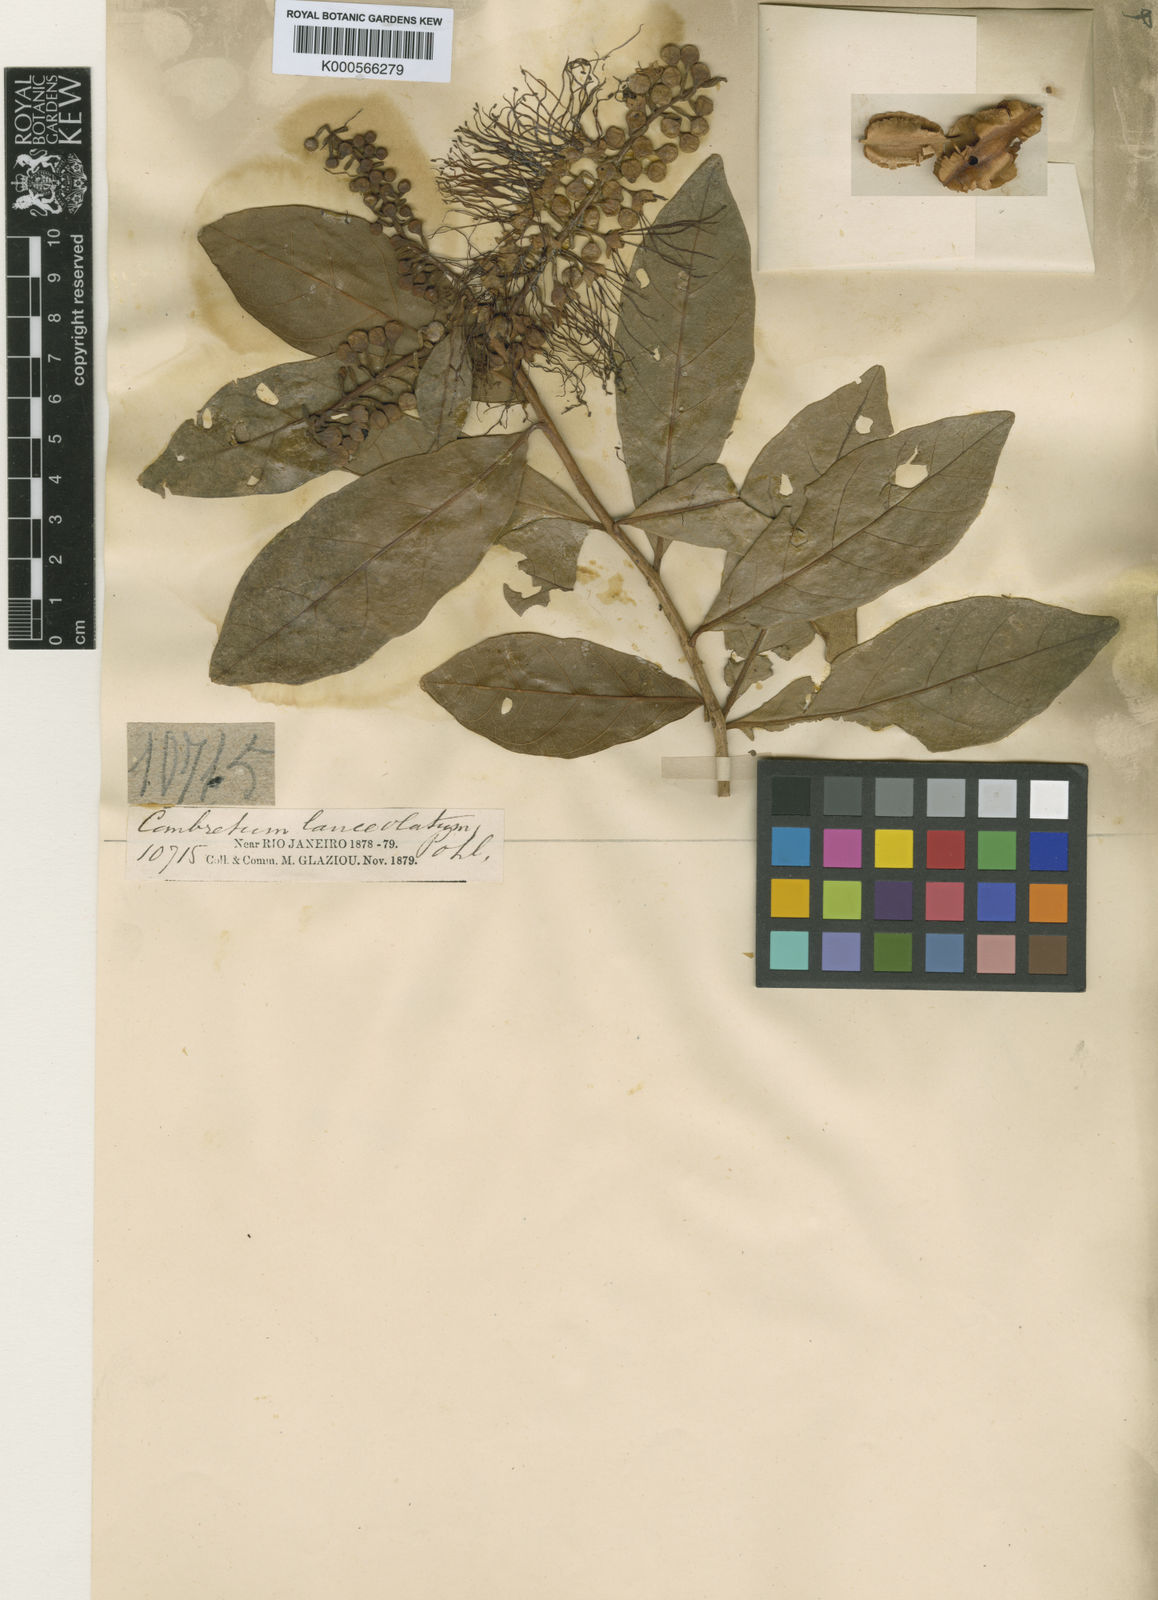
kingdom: Plantae
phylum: Tracheophyta
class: Magnoliopsida
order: Myrtales
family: Combretaceae
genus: Combretum
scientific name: Combretum lanceolatum
